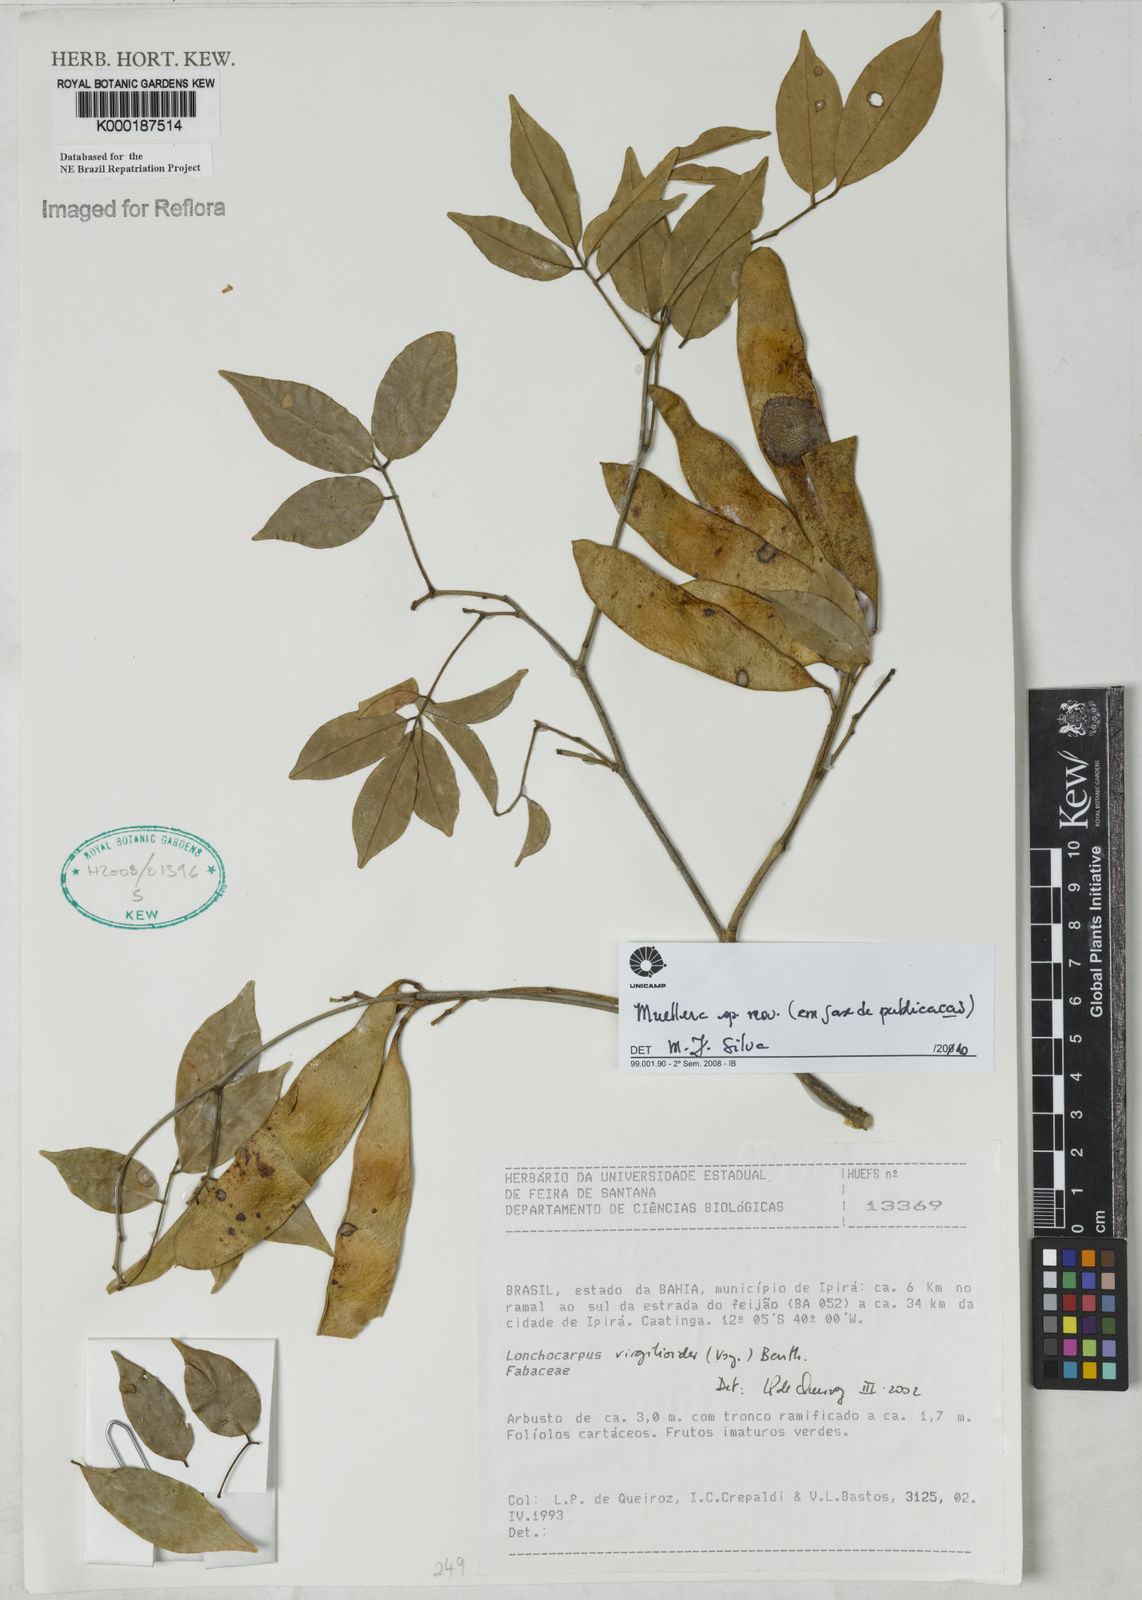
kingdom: Plantae
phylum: Tracheophyta
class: Magnoliopsida
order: Fabales
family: Fabaceae
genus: Muellera
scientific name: Muellera nitens
